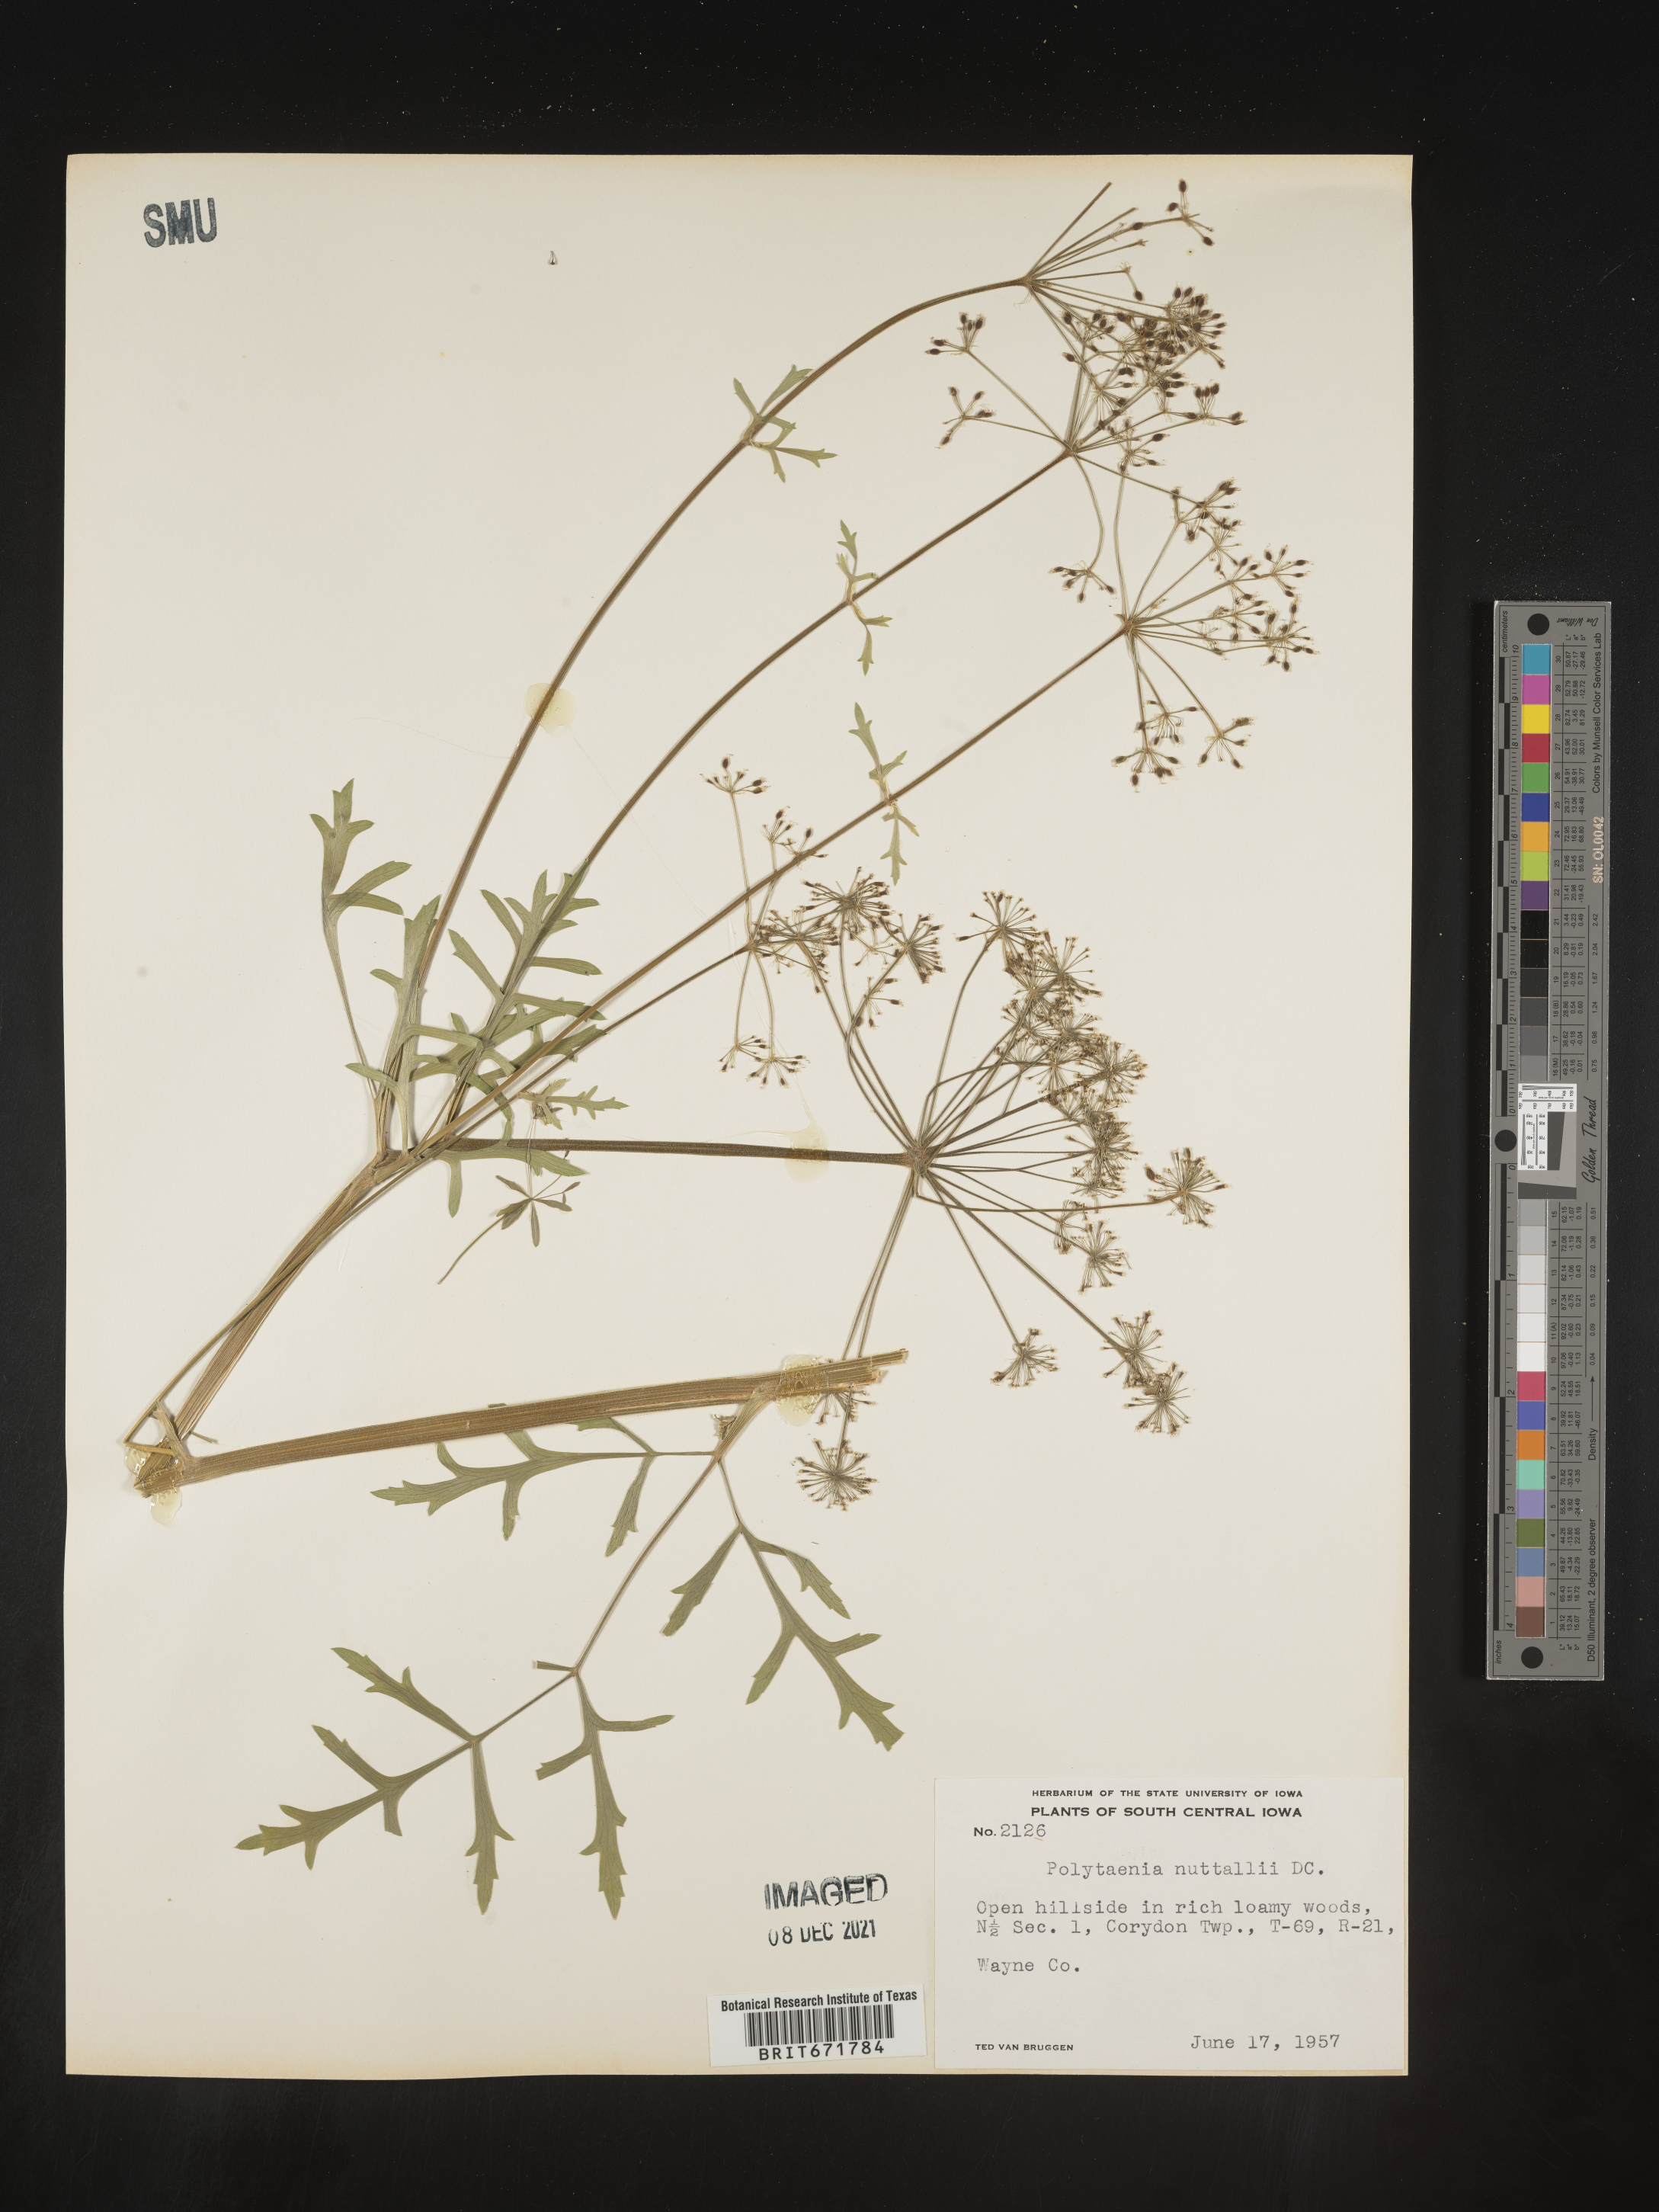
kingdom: Plantae
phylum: Tracheophyta
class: Magnoliopsida
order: Apiales
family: Apiaceae
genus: Polytaenia
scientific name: Polytaenia nuttallii
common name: Prairie-parsley
